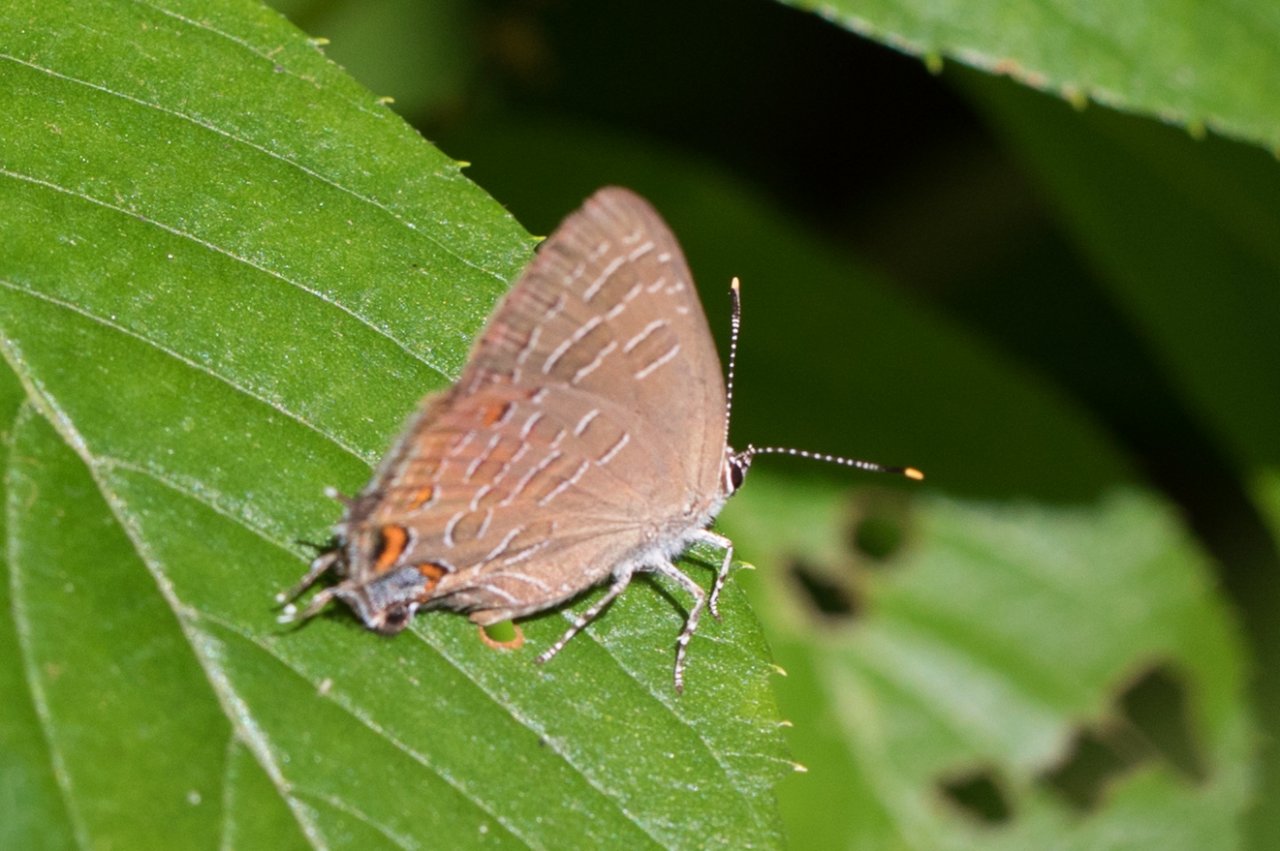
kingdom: Animalia
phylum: Arthropoda
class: Insecta
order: Lepidoptera
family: Lycaenidae
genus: Satyrium
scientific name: Satyrium liparops
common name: Striped Hairstreak
